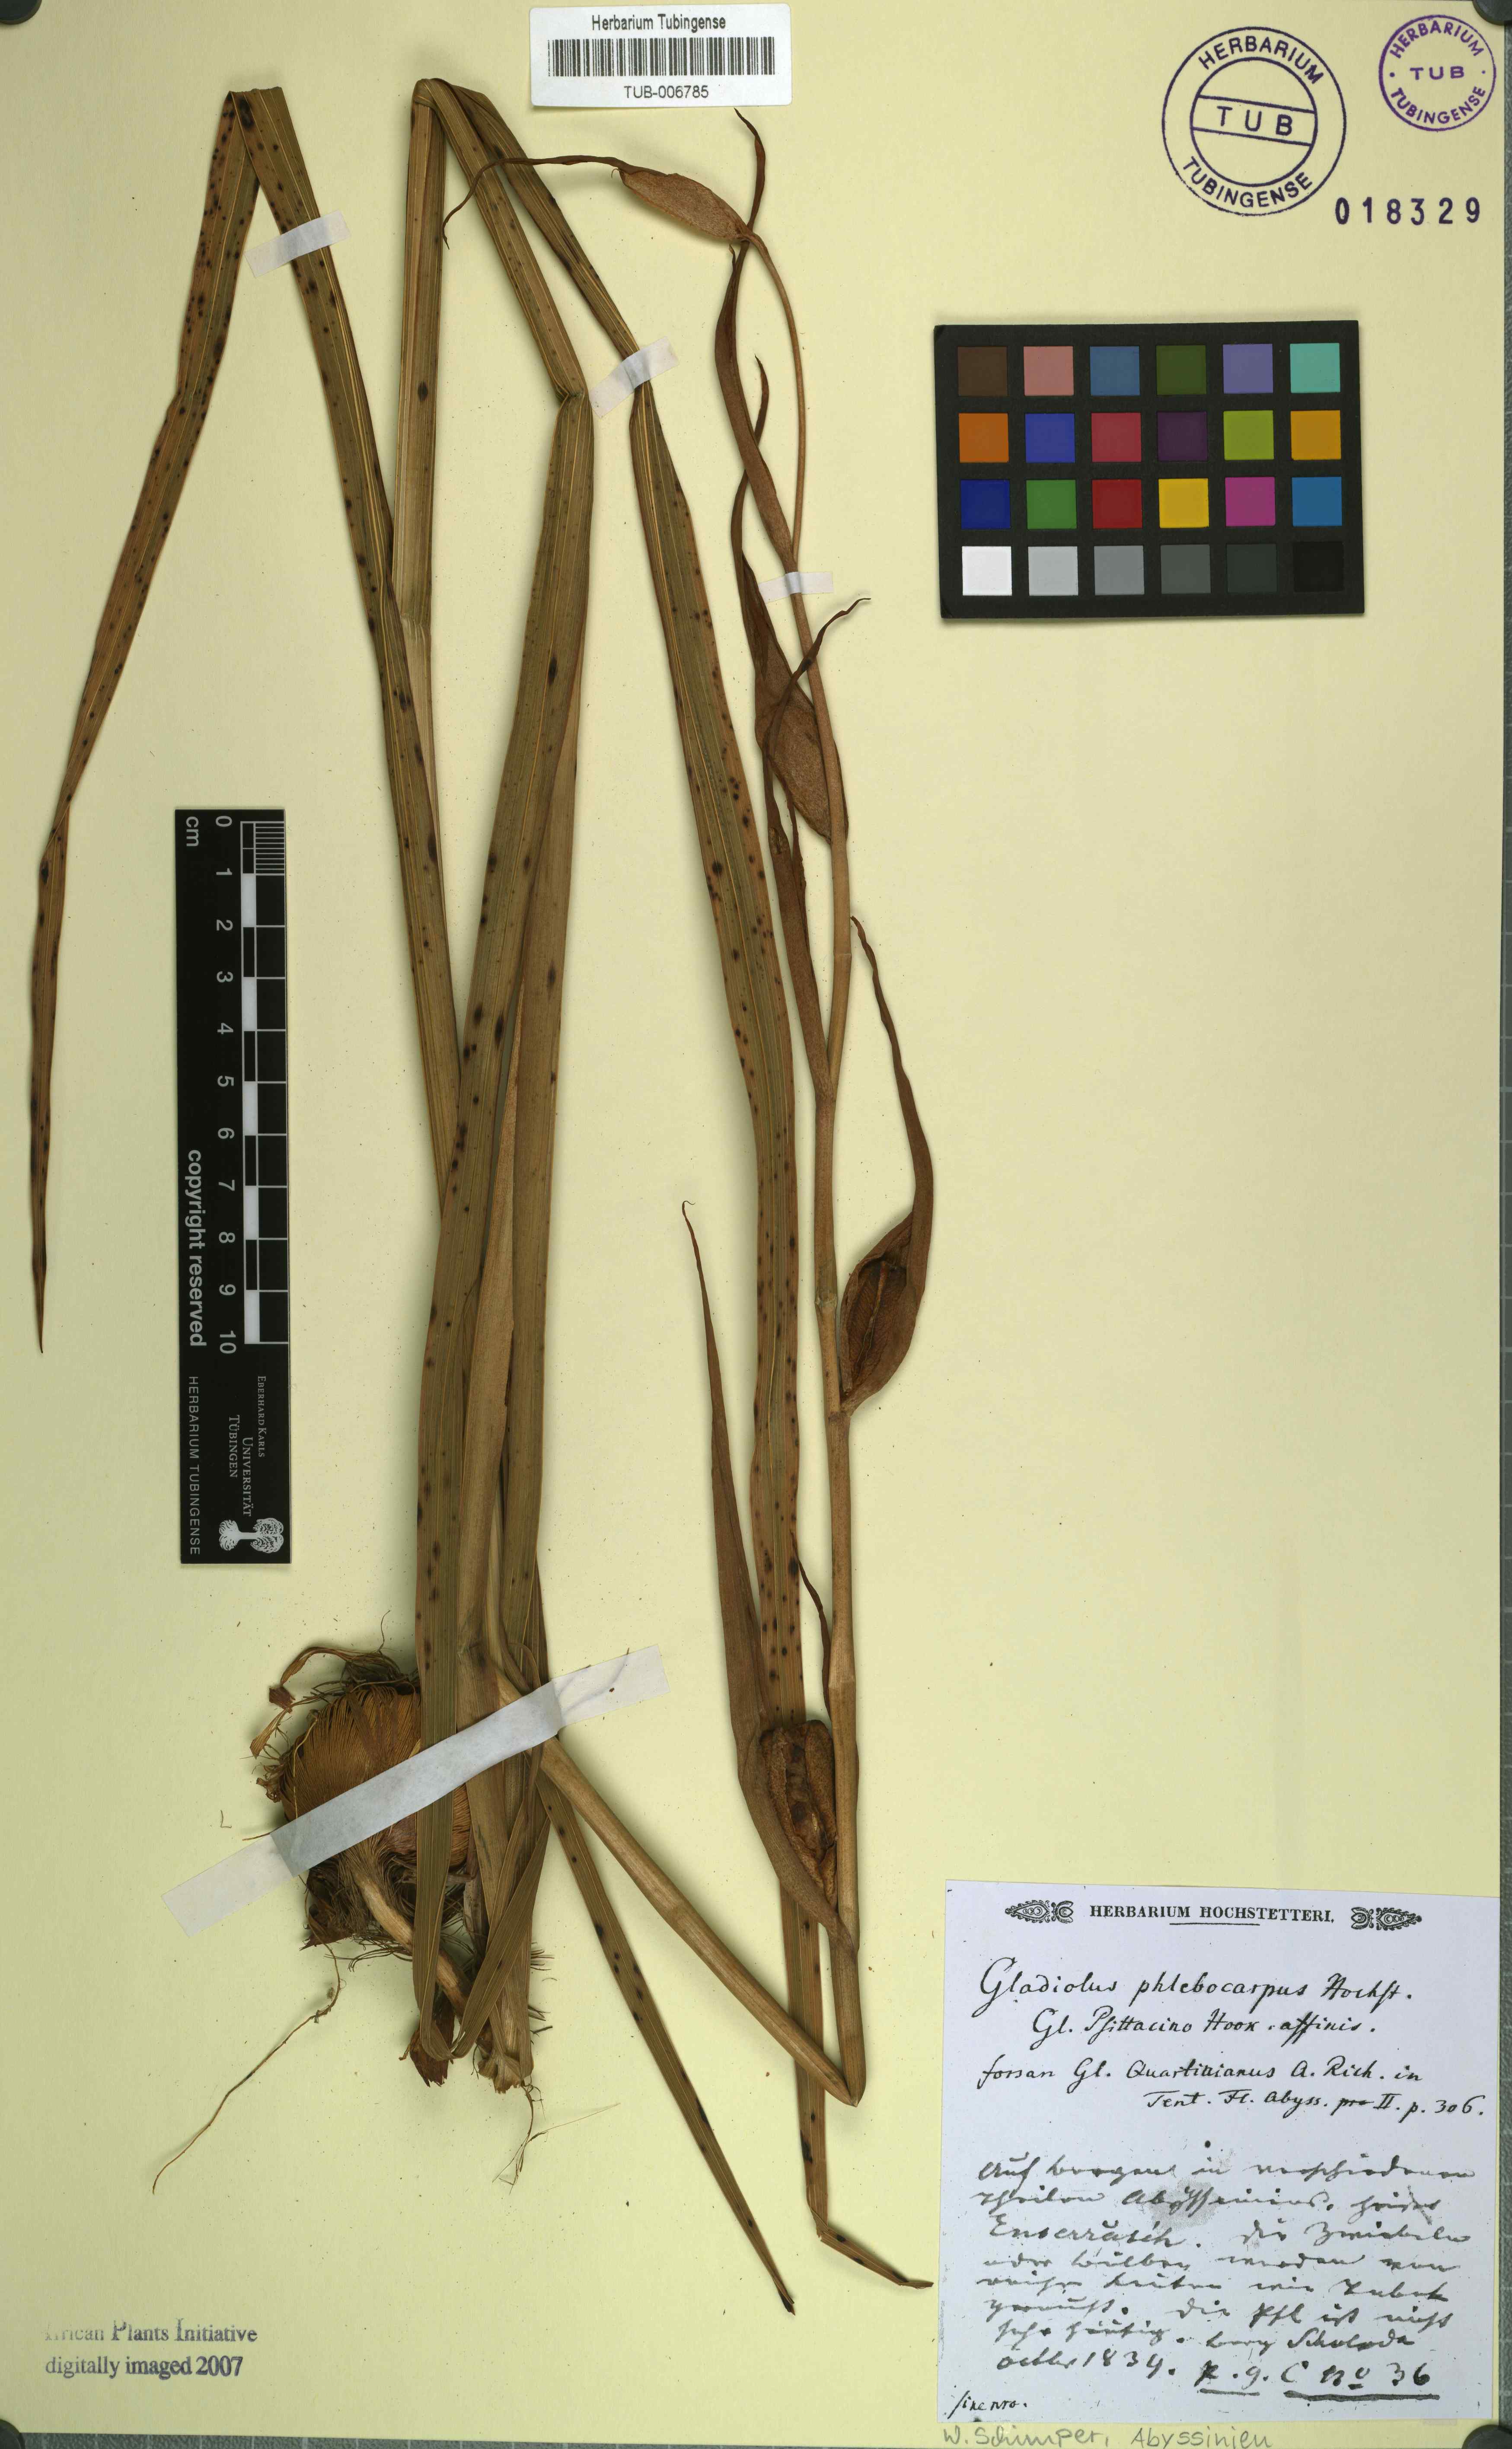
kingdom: Plantae
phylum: Tracheophyta
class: Liliopsida
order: Asparagales
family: Iridaceae
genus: Gladiolus
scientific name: Gladiolus
